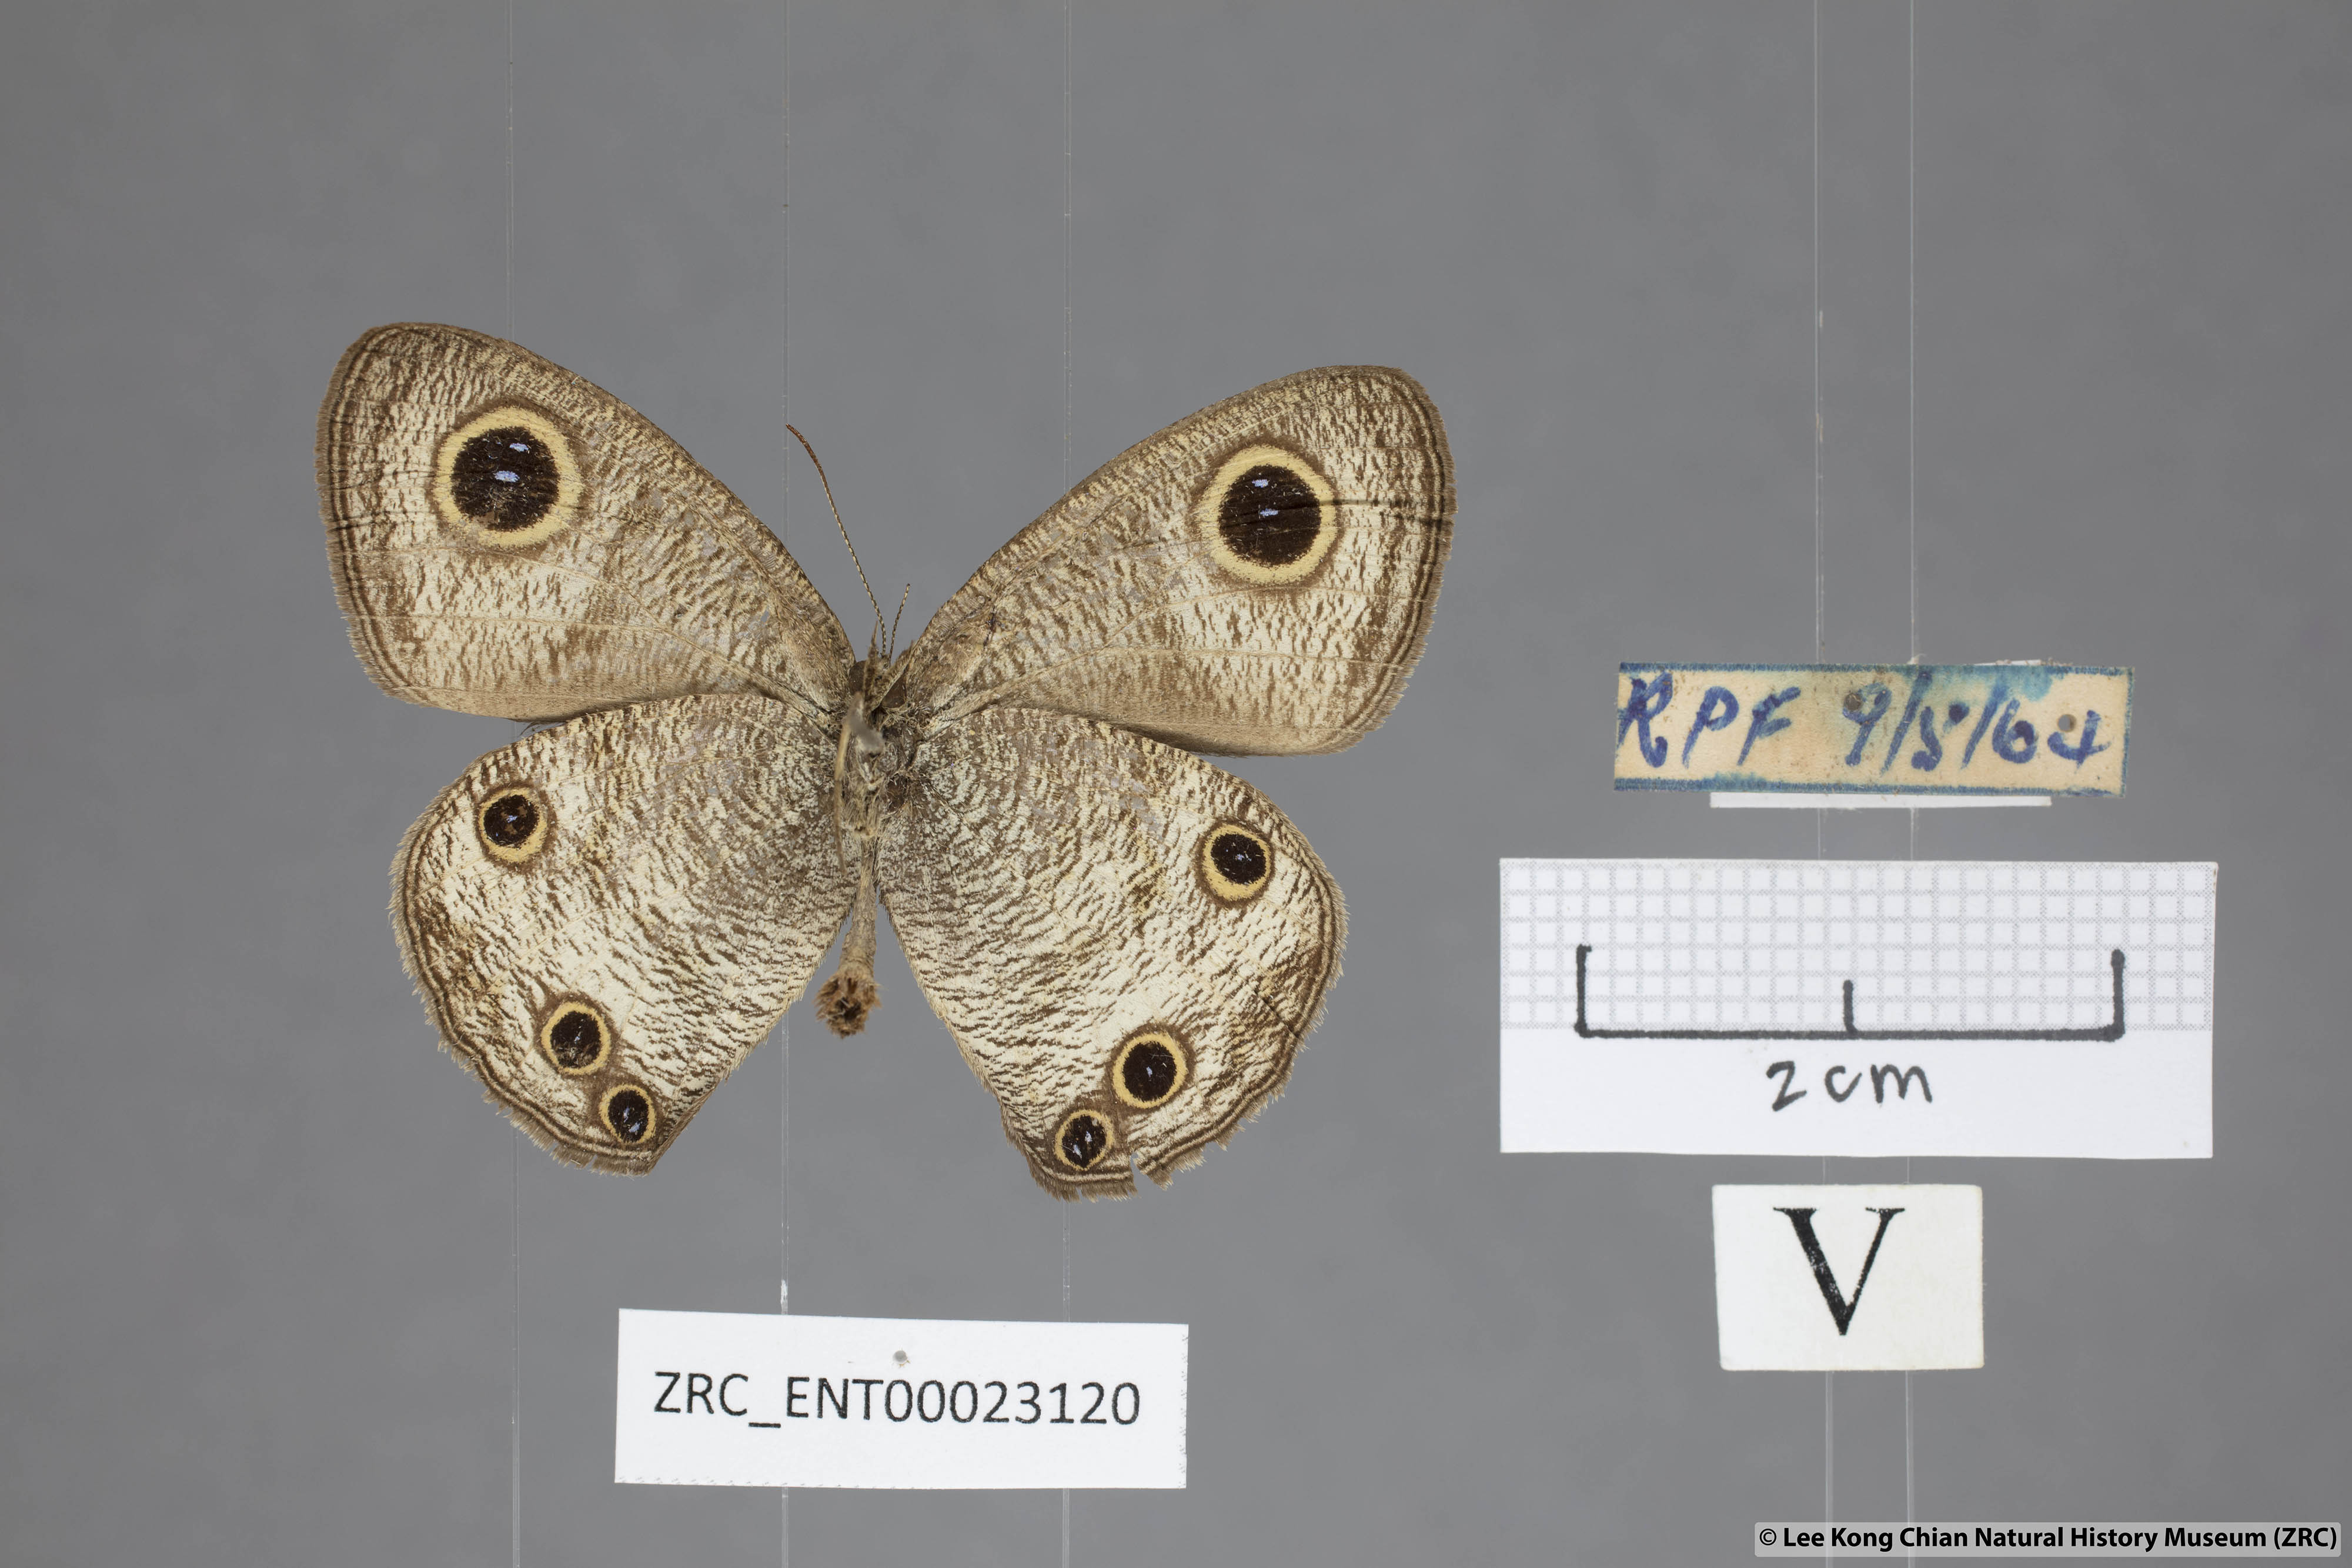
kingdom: Animalia
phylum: Arthropoda
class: Insecta
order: Lepidoptera
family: Nymphalidae
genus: Ypthima
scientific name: Ypthima pandocus
